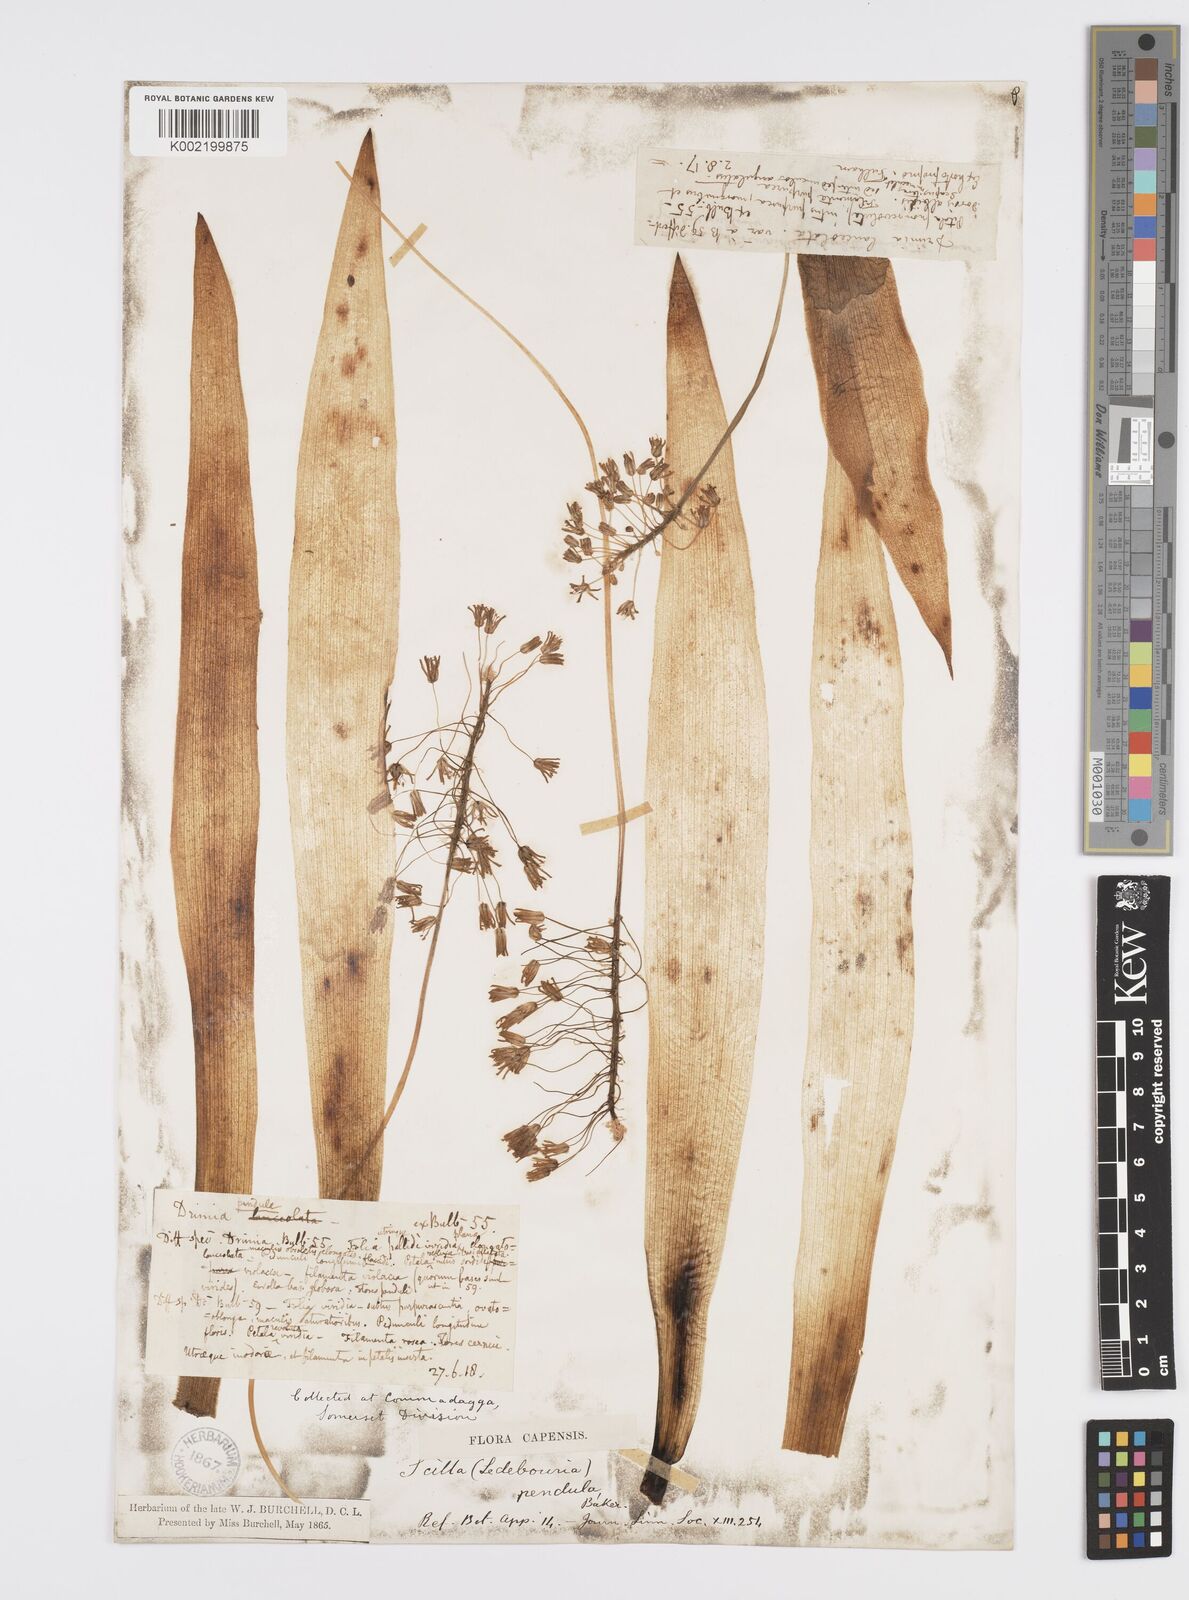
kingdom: Plantae
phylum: Tracheophyta
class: Liliopsida
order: Asparagales
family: Asparagaceae
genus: Ledebouria
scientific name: Ledebouria floribunda
